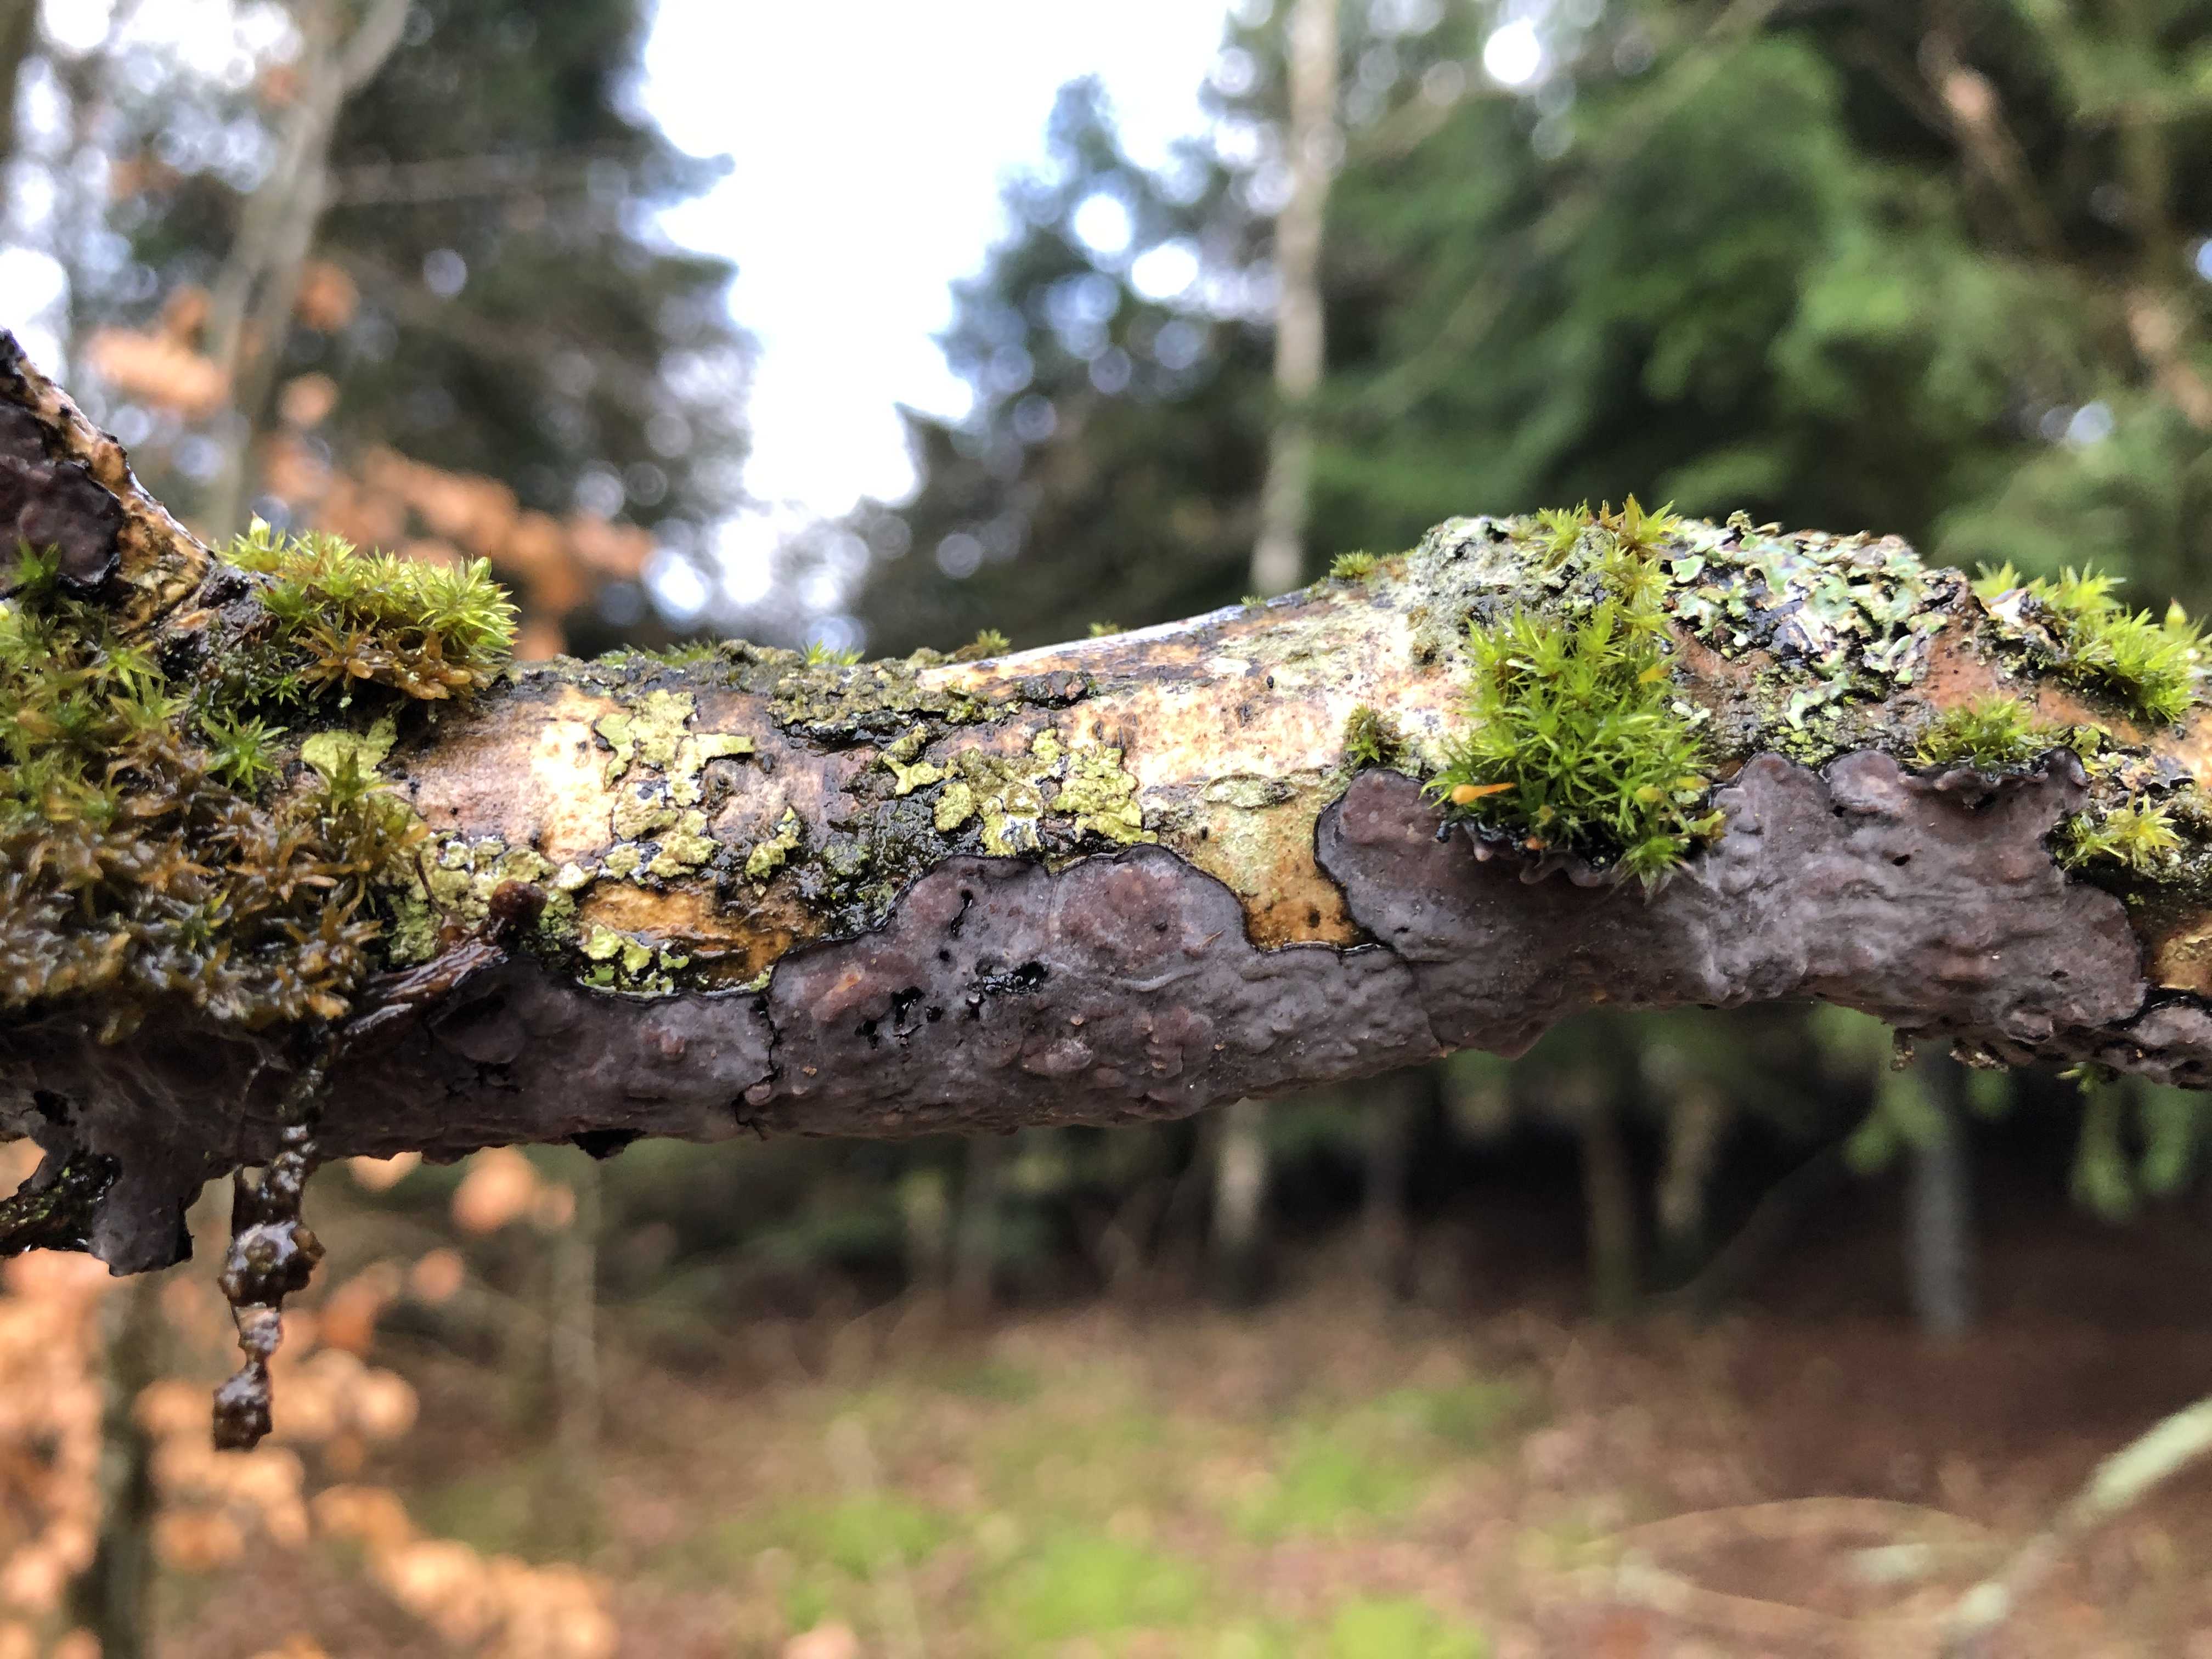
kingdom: Fungi
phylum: Basidiomycota
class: Agaricomycetes
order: Russulales
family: Peniophoraceae
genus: Peniophora
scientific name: Peniophora quercina
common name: ege-voksskind
